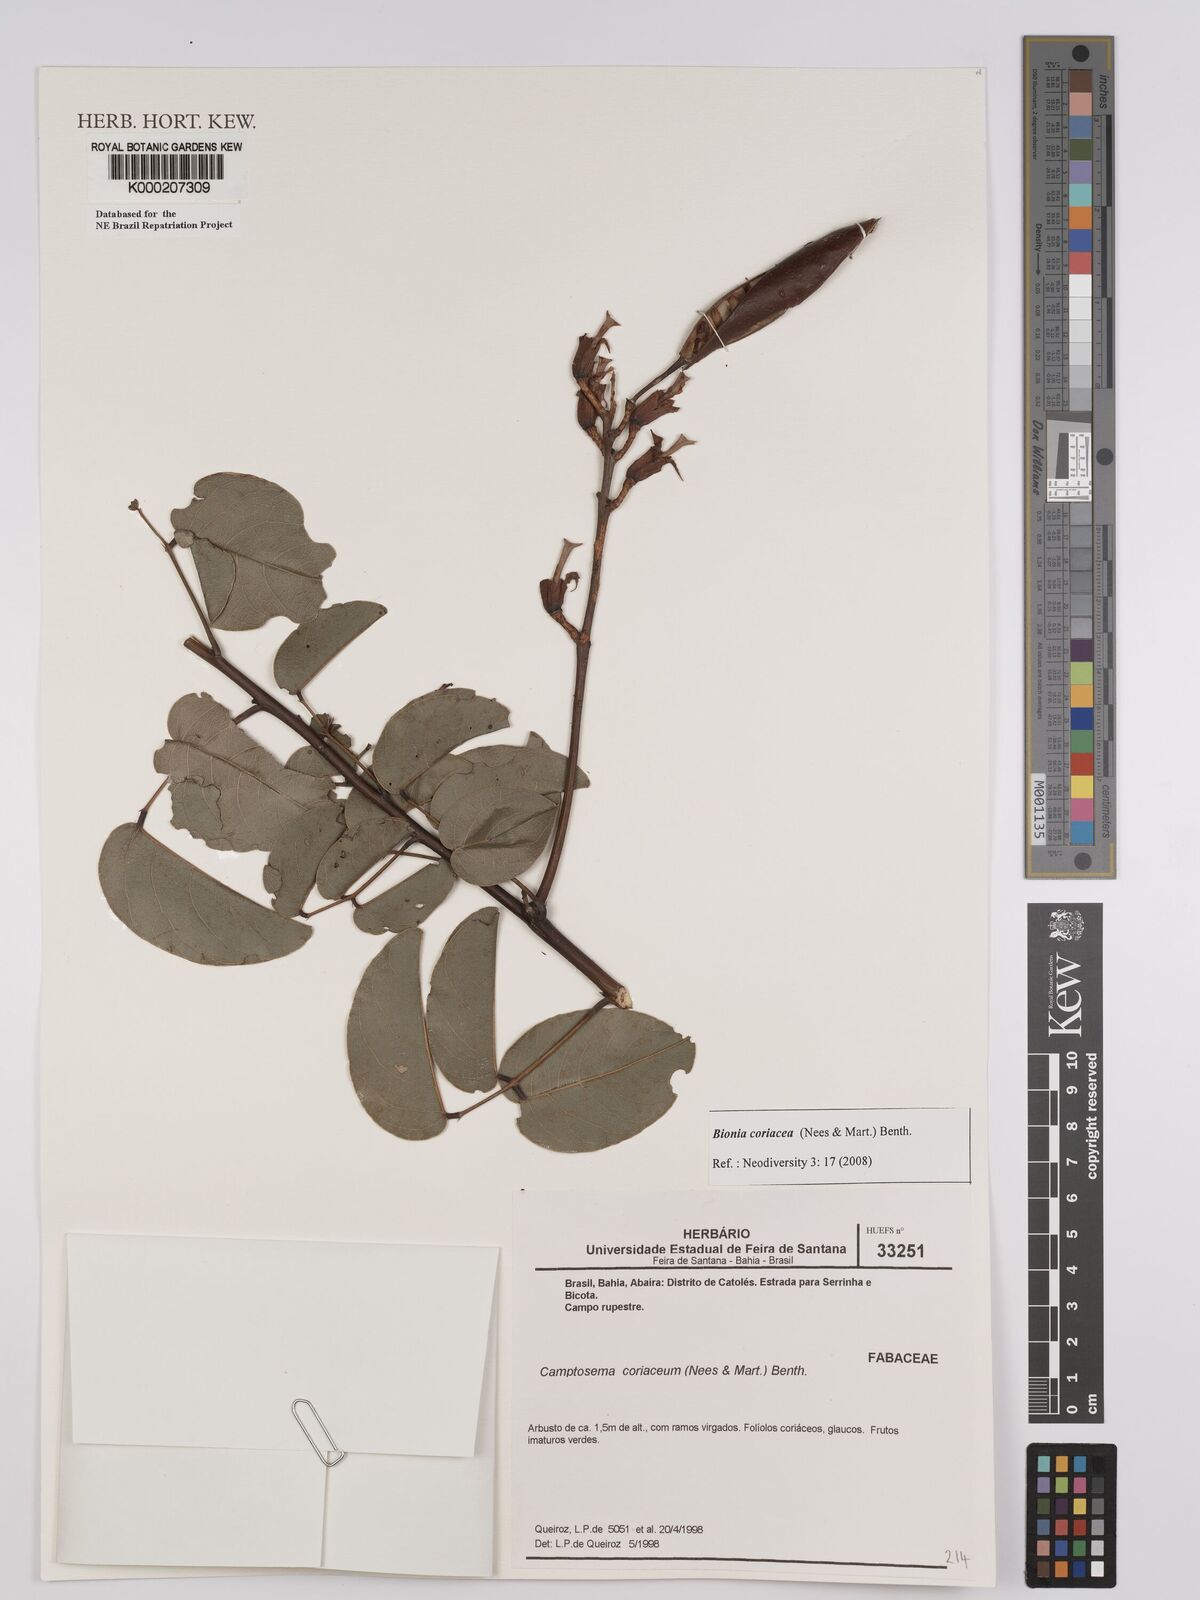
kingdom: Plantae
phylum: Tracheophyta
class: Magnoliopsida
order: Fabales
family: Fabaceae
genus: Camptosema
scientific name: Camptosema coriaceum
